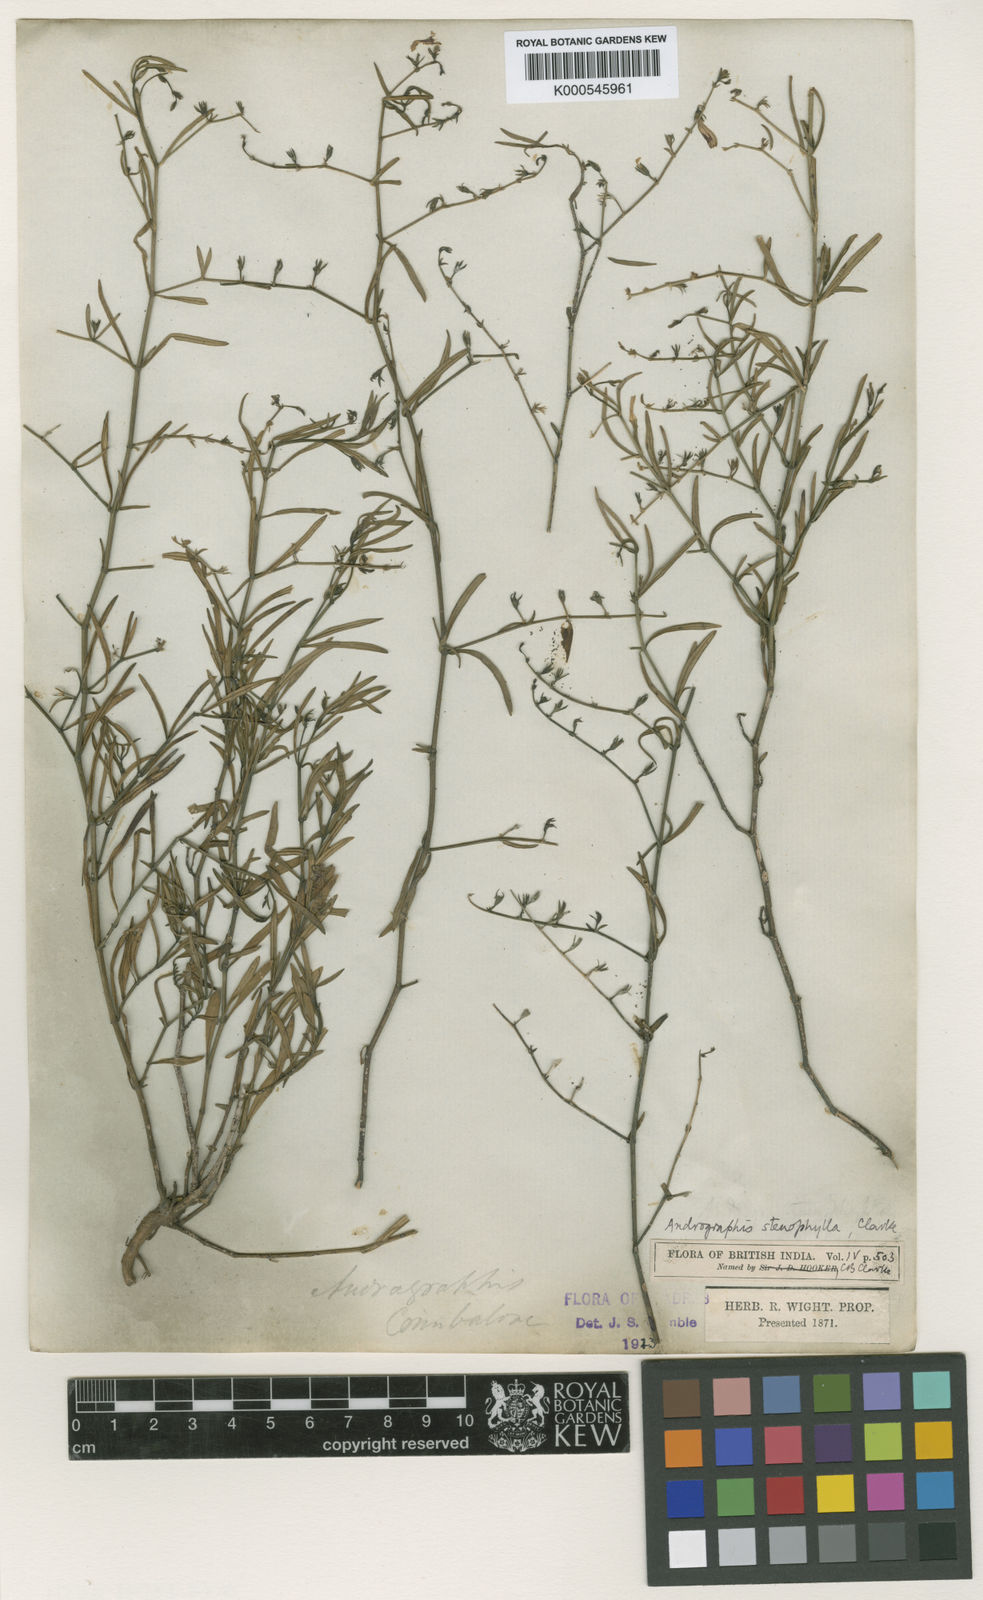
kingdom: Plantae
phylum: Tracheophyta
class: Magnoliopsida
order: Lamiales
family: Acanthaceae
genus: Andrographis
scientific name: Andrographis stenophylla
